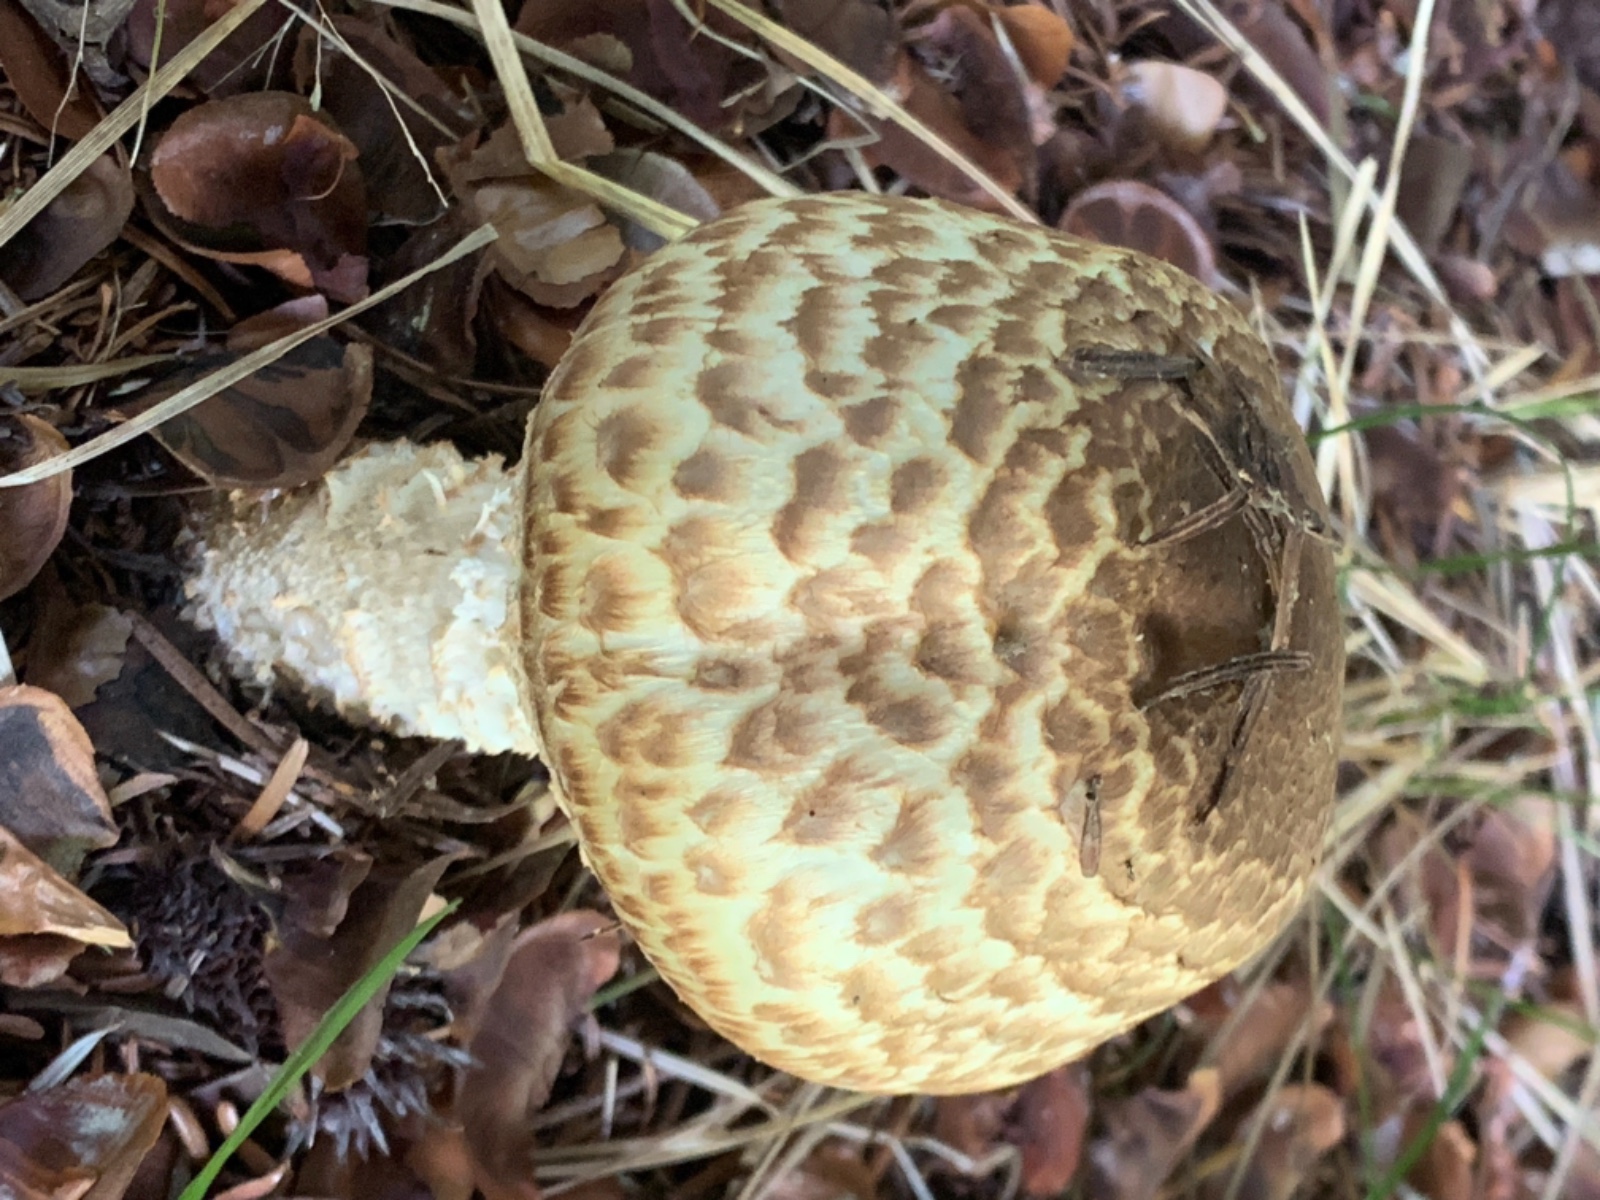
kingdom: Fungi
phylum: Basidiomycota
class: Agaricomycetes
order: Agaricales
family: Agaricaceae
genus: Agaricus
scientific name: Agaricus augustus
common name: prægtig champignon
